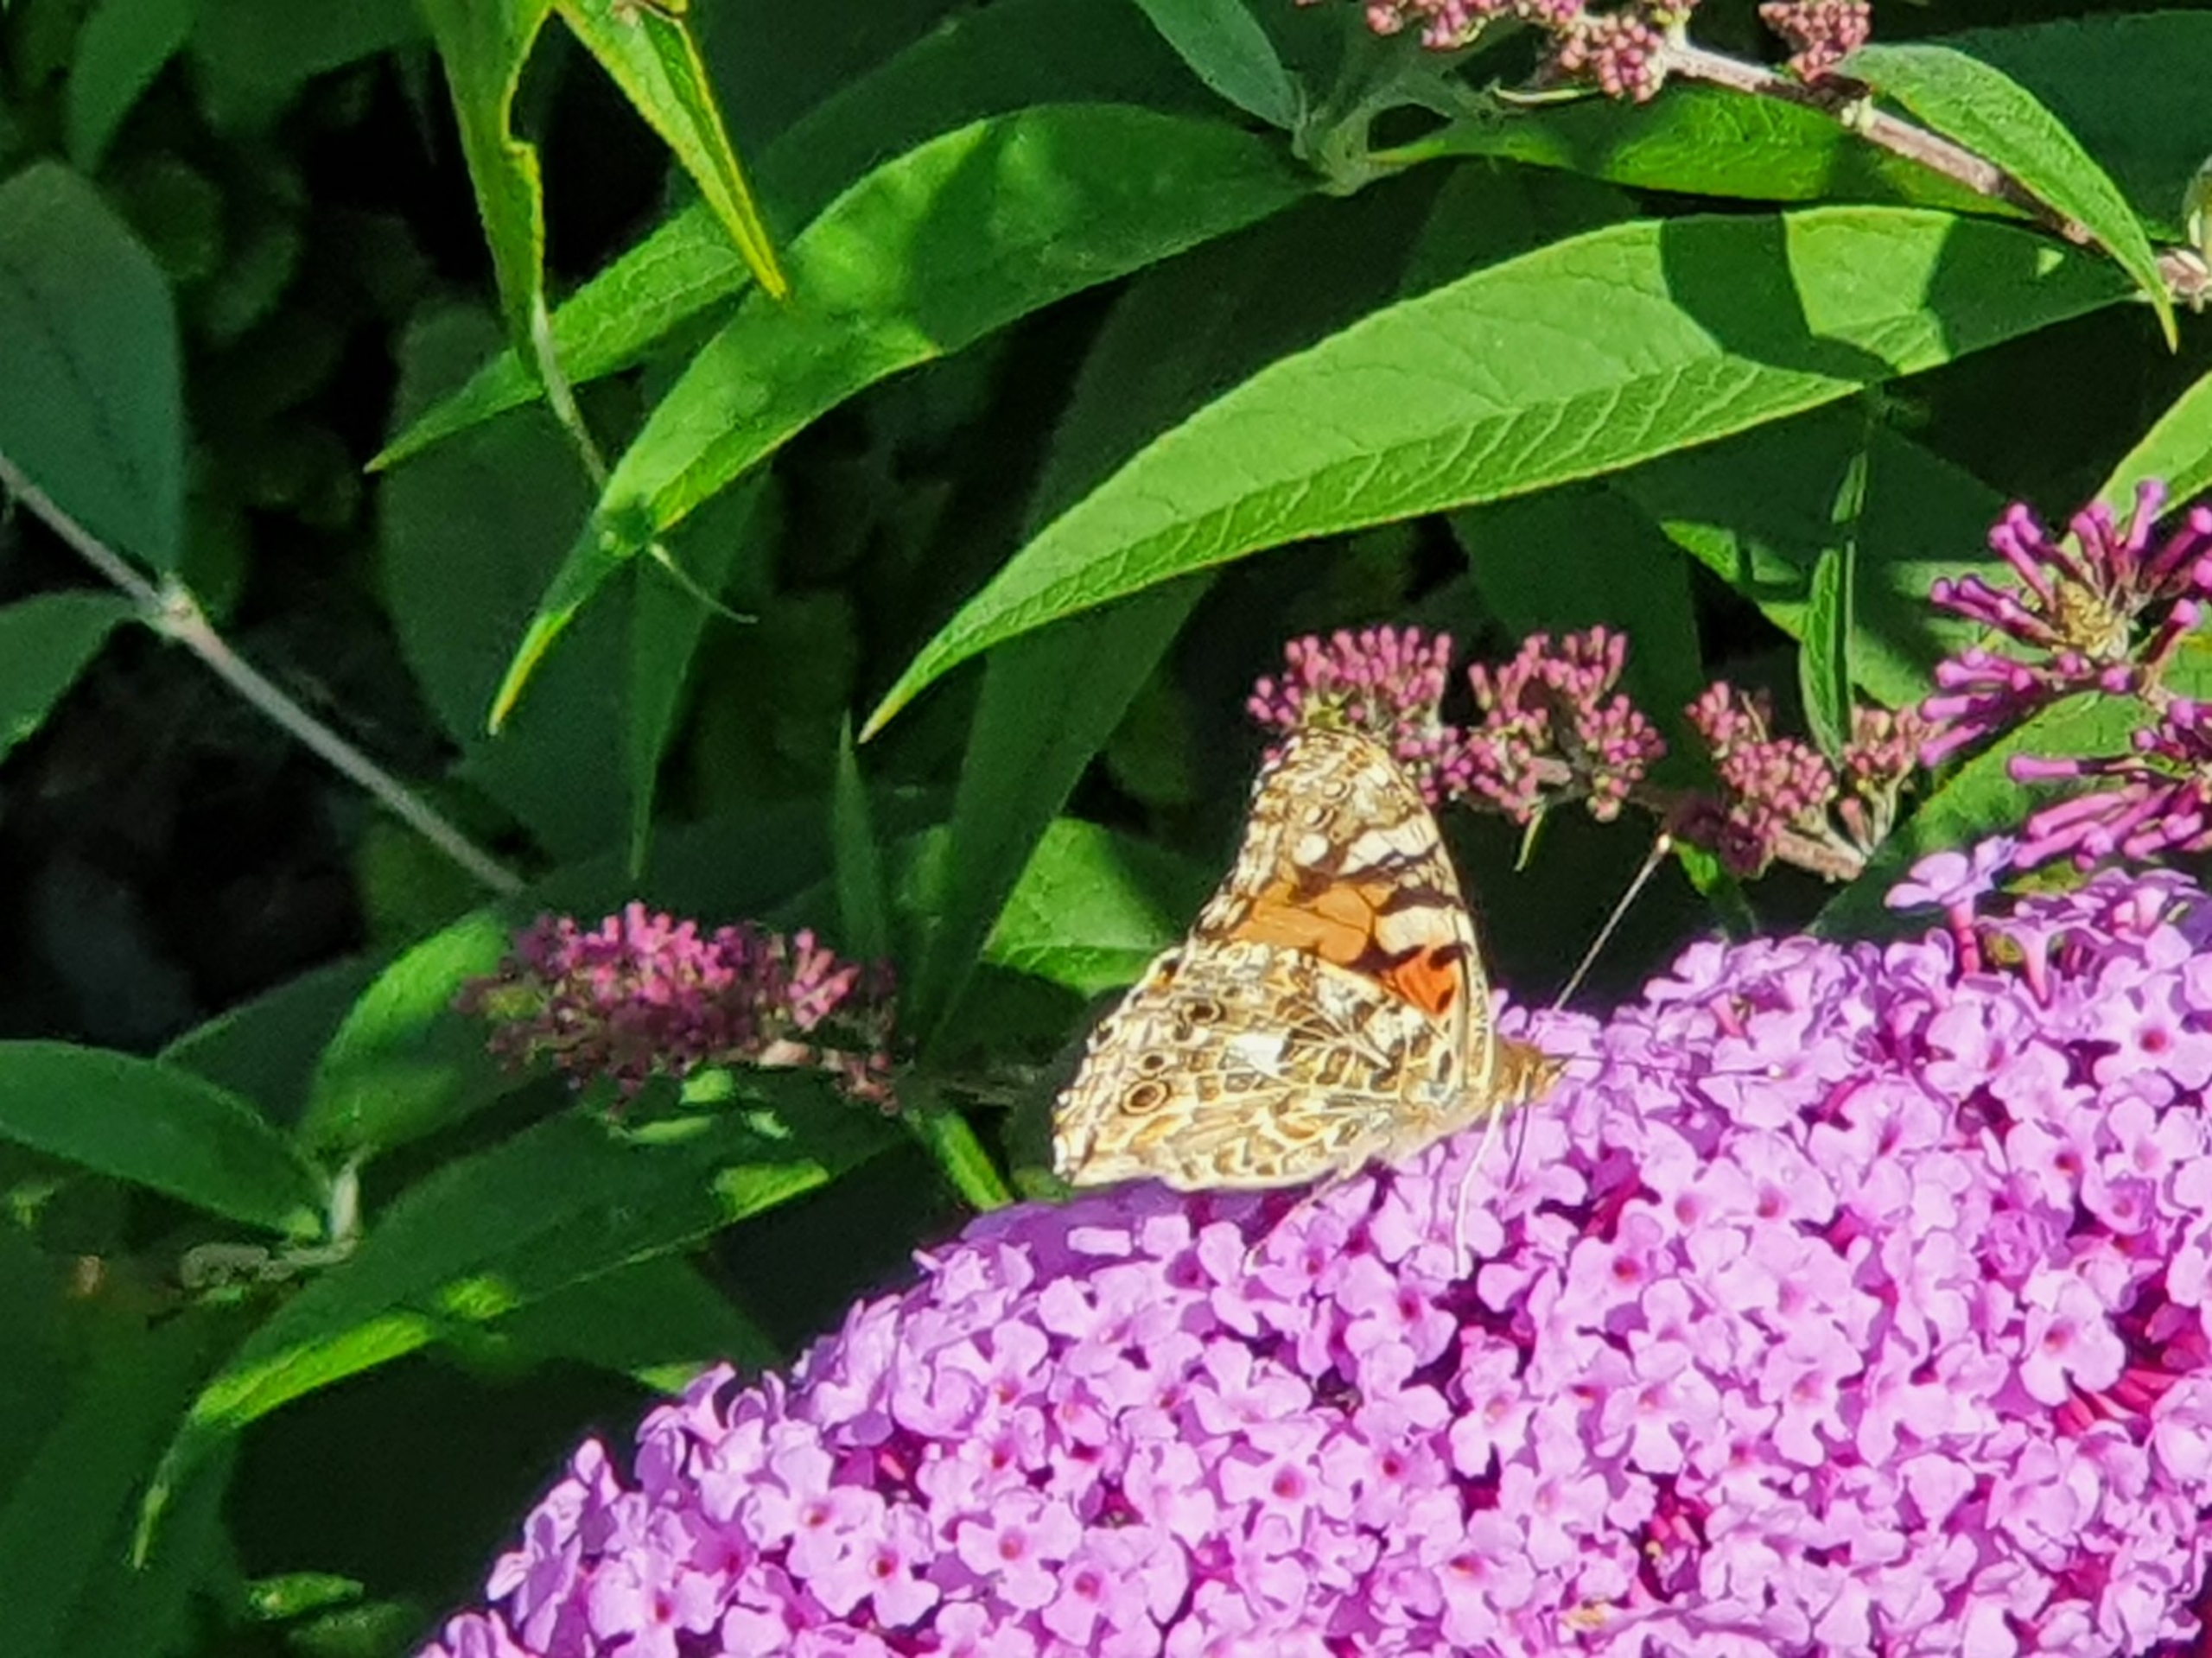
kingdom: Animalia
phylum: Arthropoda
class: Insecta
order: Lepidoptera
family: Nymphalidae
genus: Vanessa
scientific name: Vanessa cardui
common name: Tidselsommerfugl
